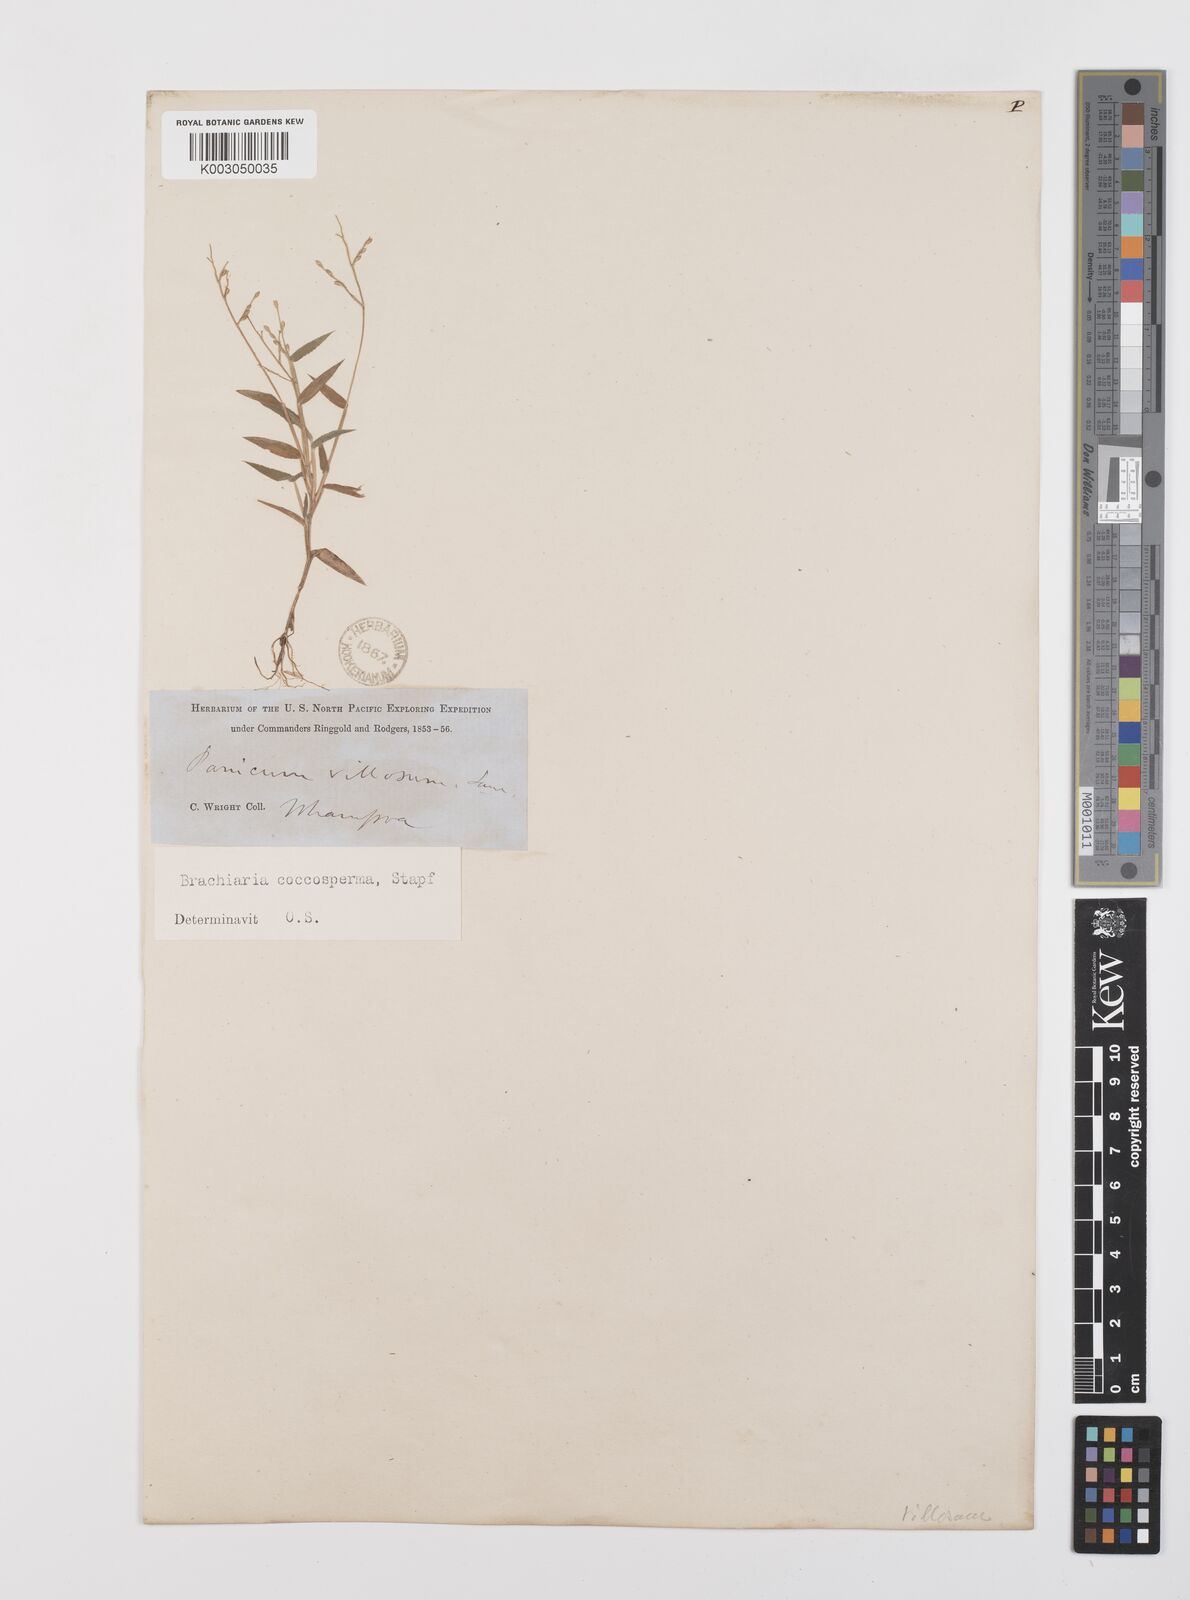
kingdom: Plantae
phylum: Tracheophyta
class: Liliopsida
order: Poales
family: Poaceae
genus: Urochloa
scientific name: Urochloa villosa
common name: Hairy signalgrass
